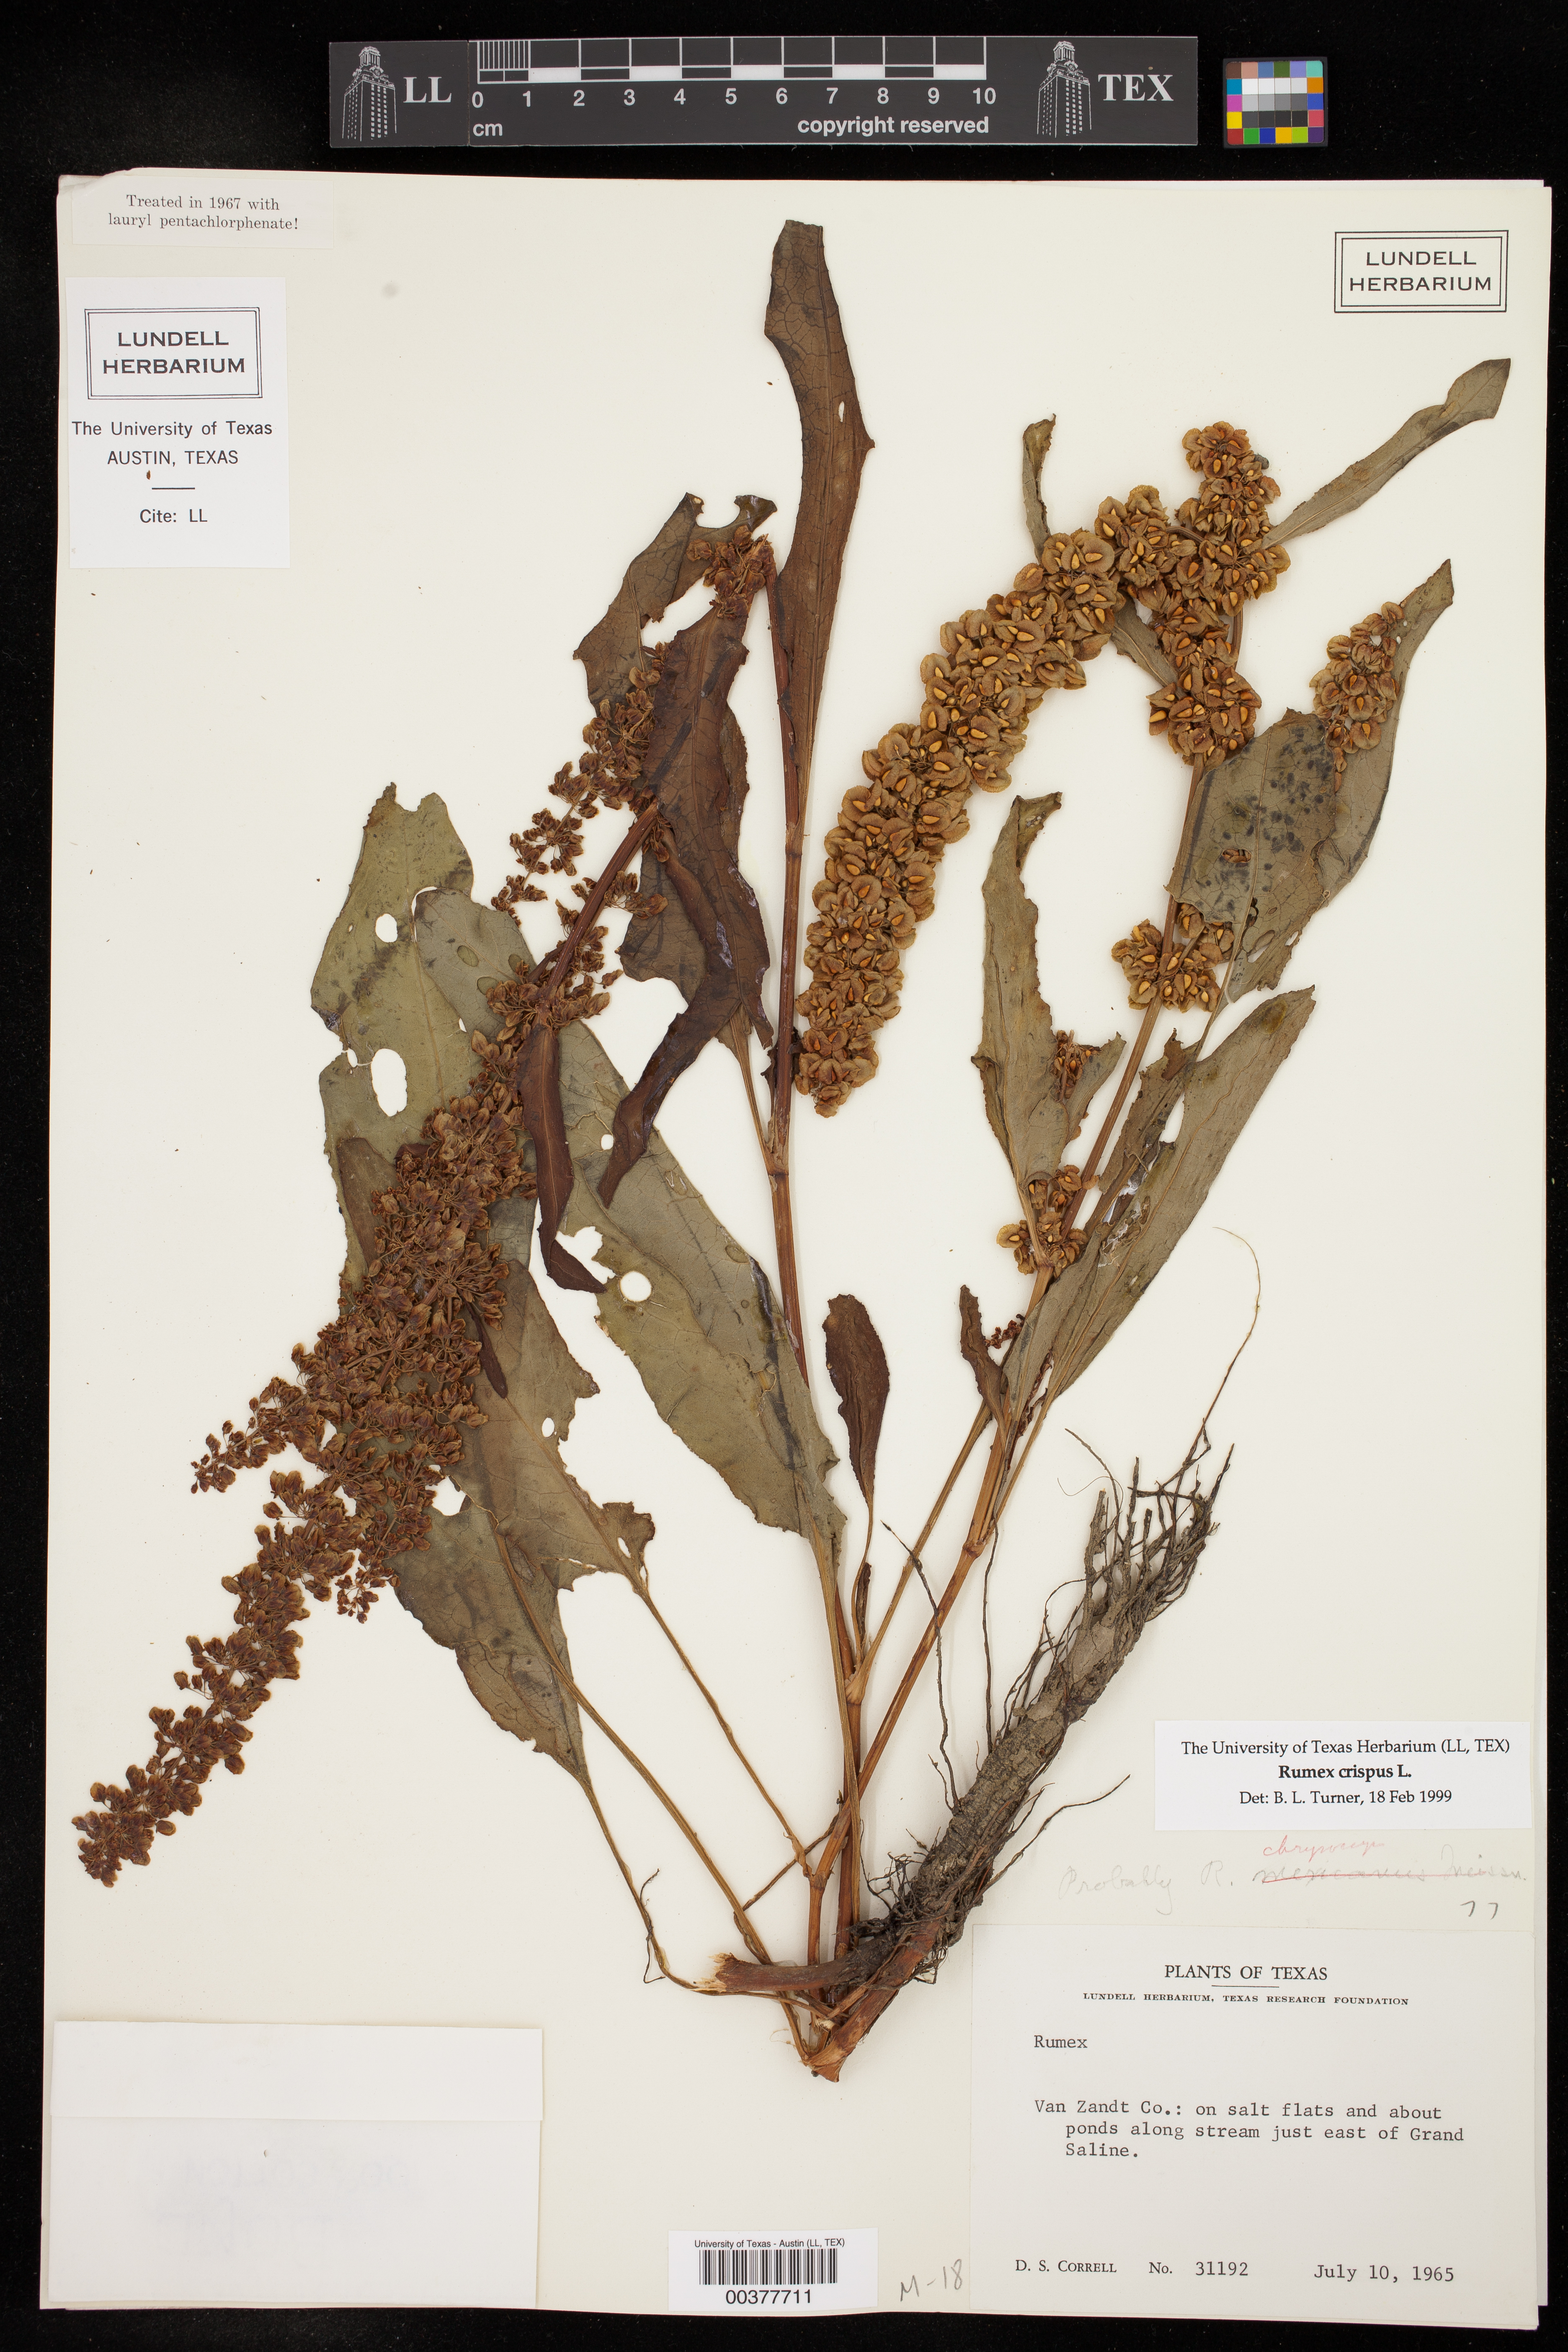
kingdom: Plantae
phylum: Tracheophyta
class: Magnoliopsida
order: Caryophyllales
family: Polygonaceae
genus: Rumex
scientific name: Rumex crispus
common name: Curled dock
